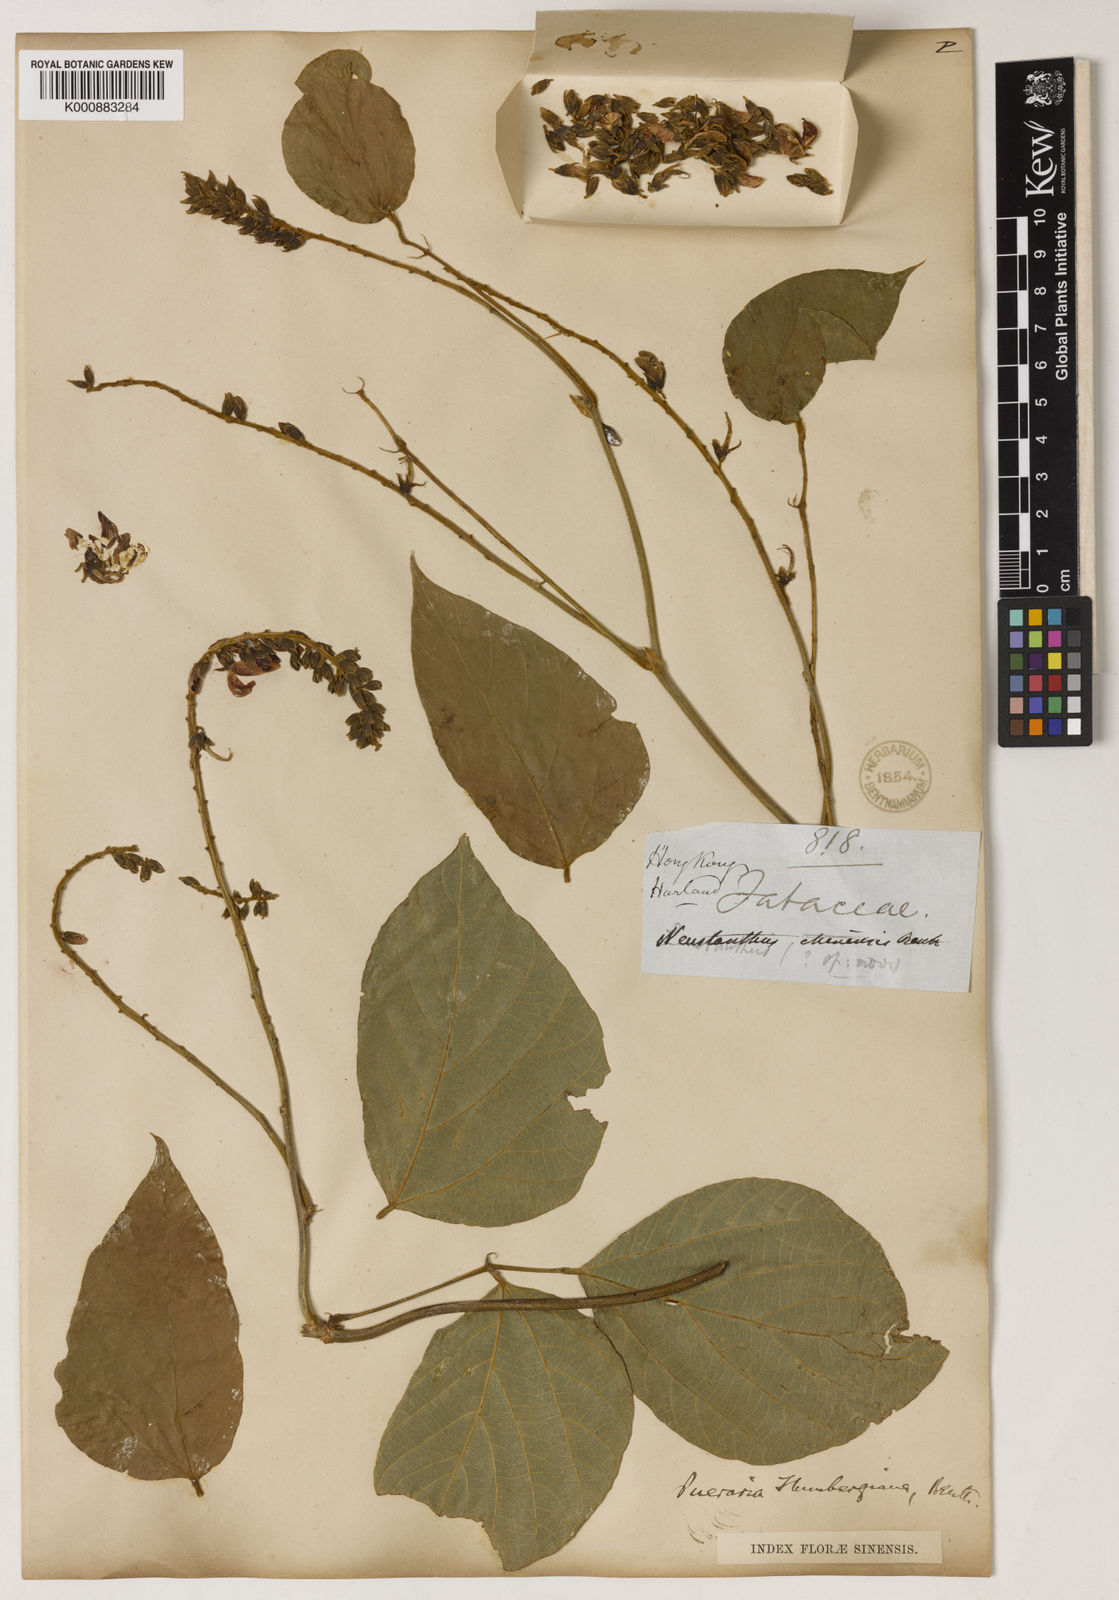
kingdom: Plantae
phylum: Tracheophyta
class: Magnoliopsida
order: Fabales
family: Fabaceae
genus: Pueraria
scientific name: Pueraria montana
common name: Kudzu
